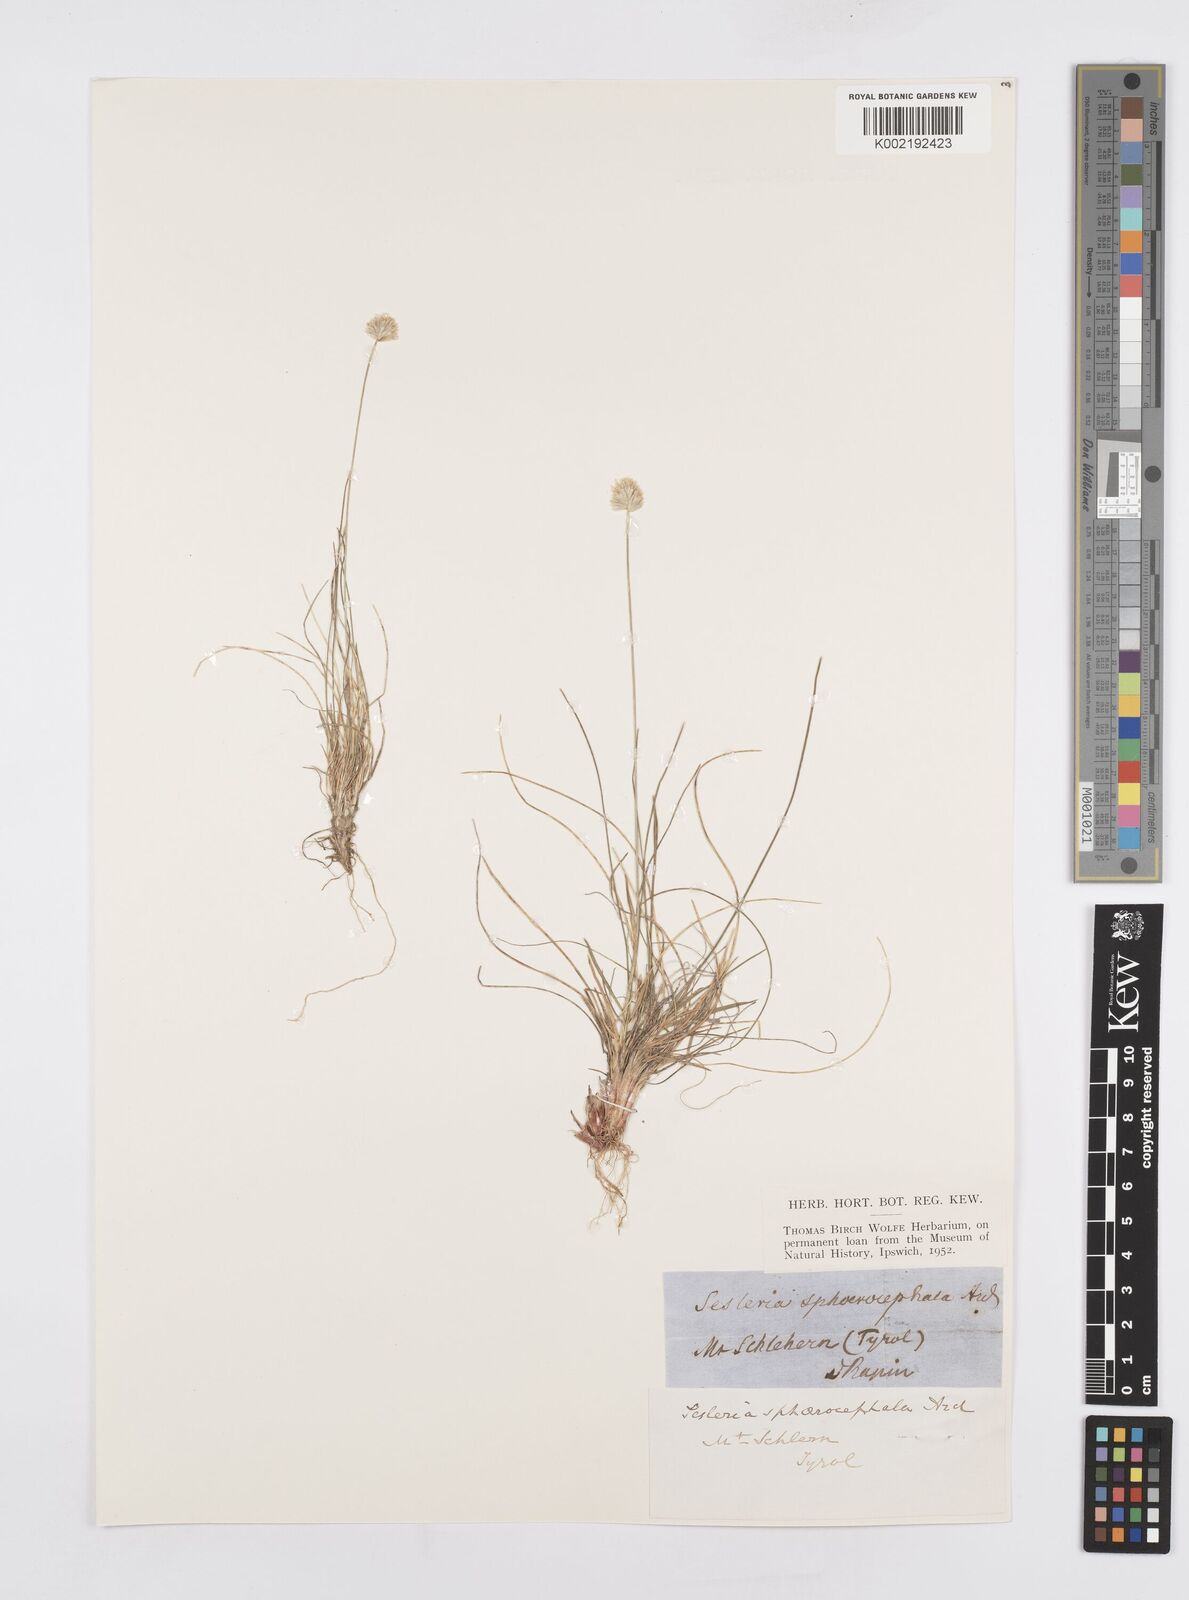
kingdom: Plantae
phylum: Tracheophyta
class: Liliopsida
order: Poales
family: Poaceae
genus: Sesleriella
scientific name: Sesleriella sphaerocephala
